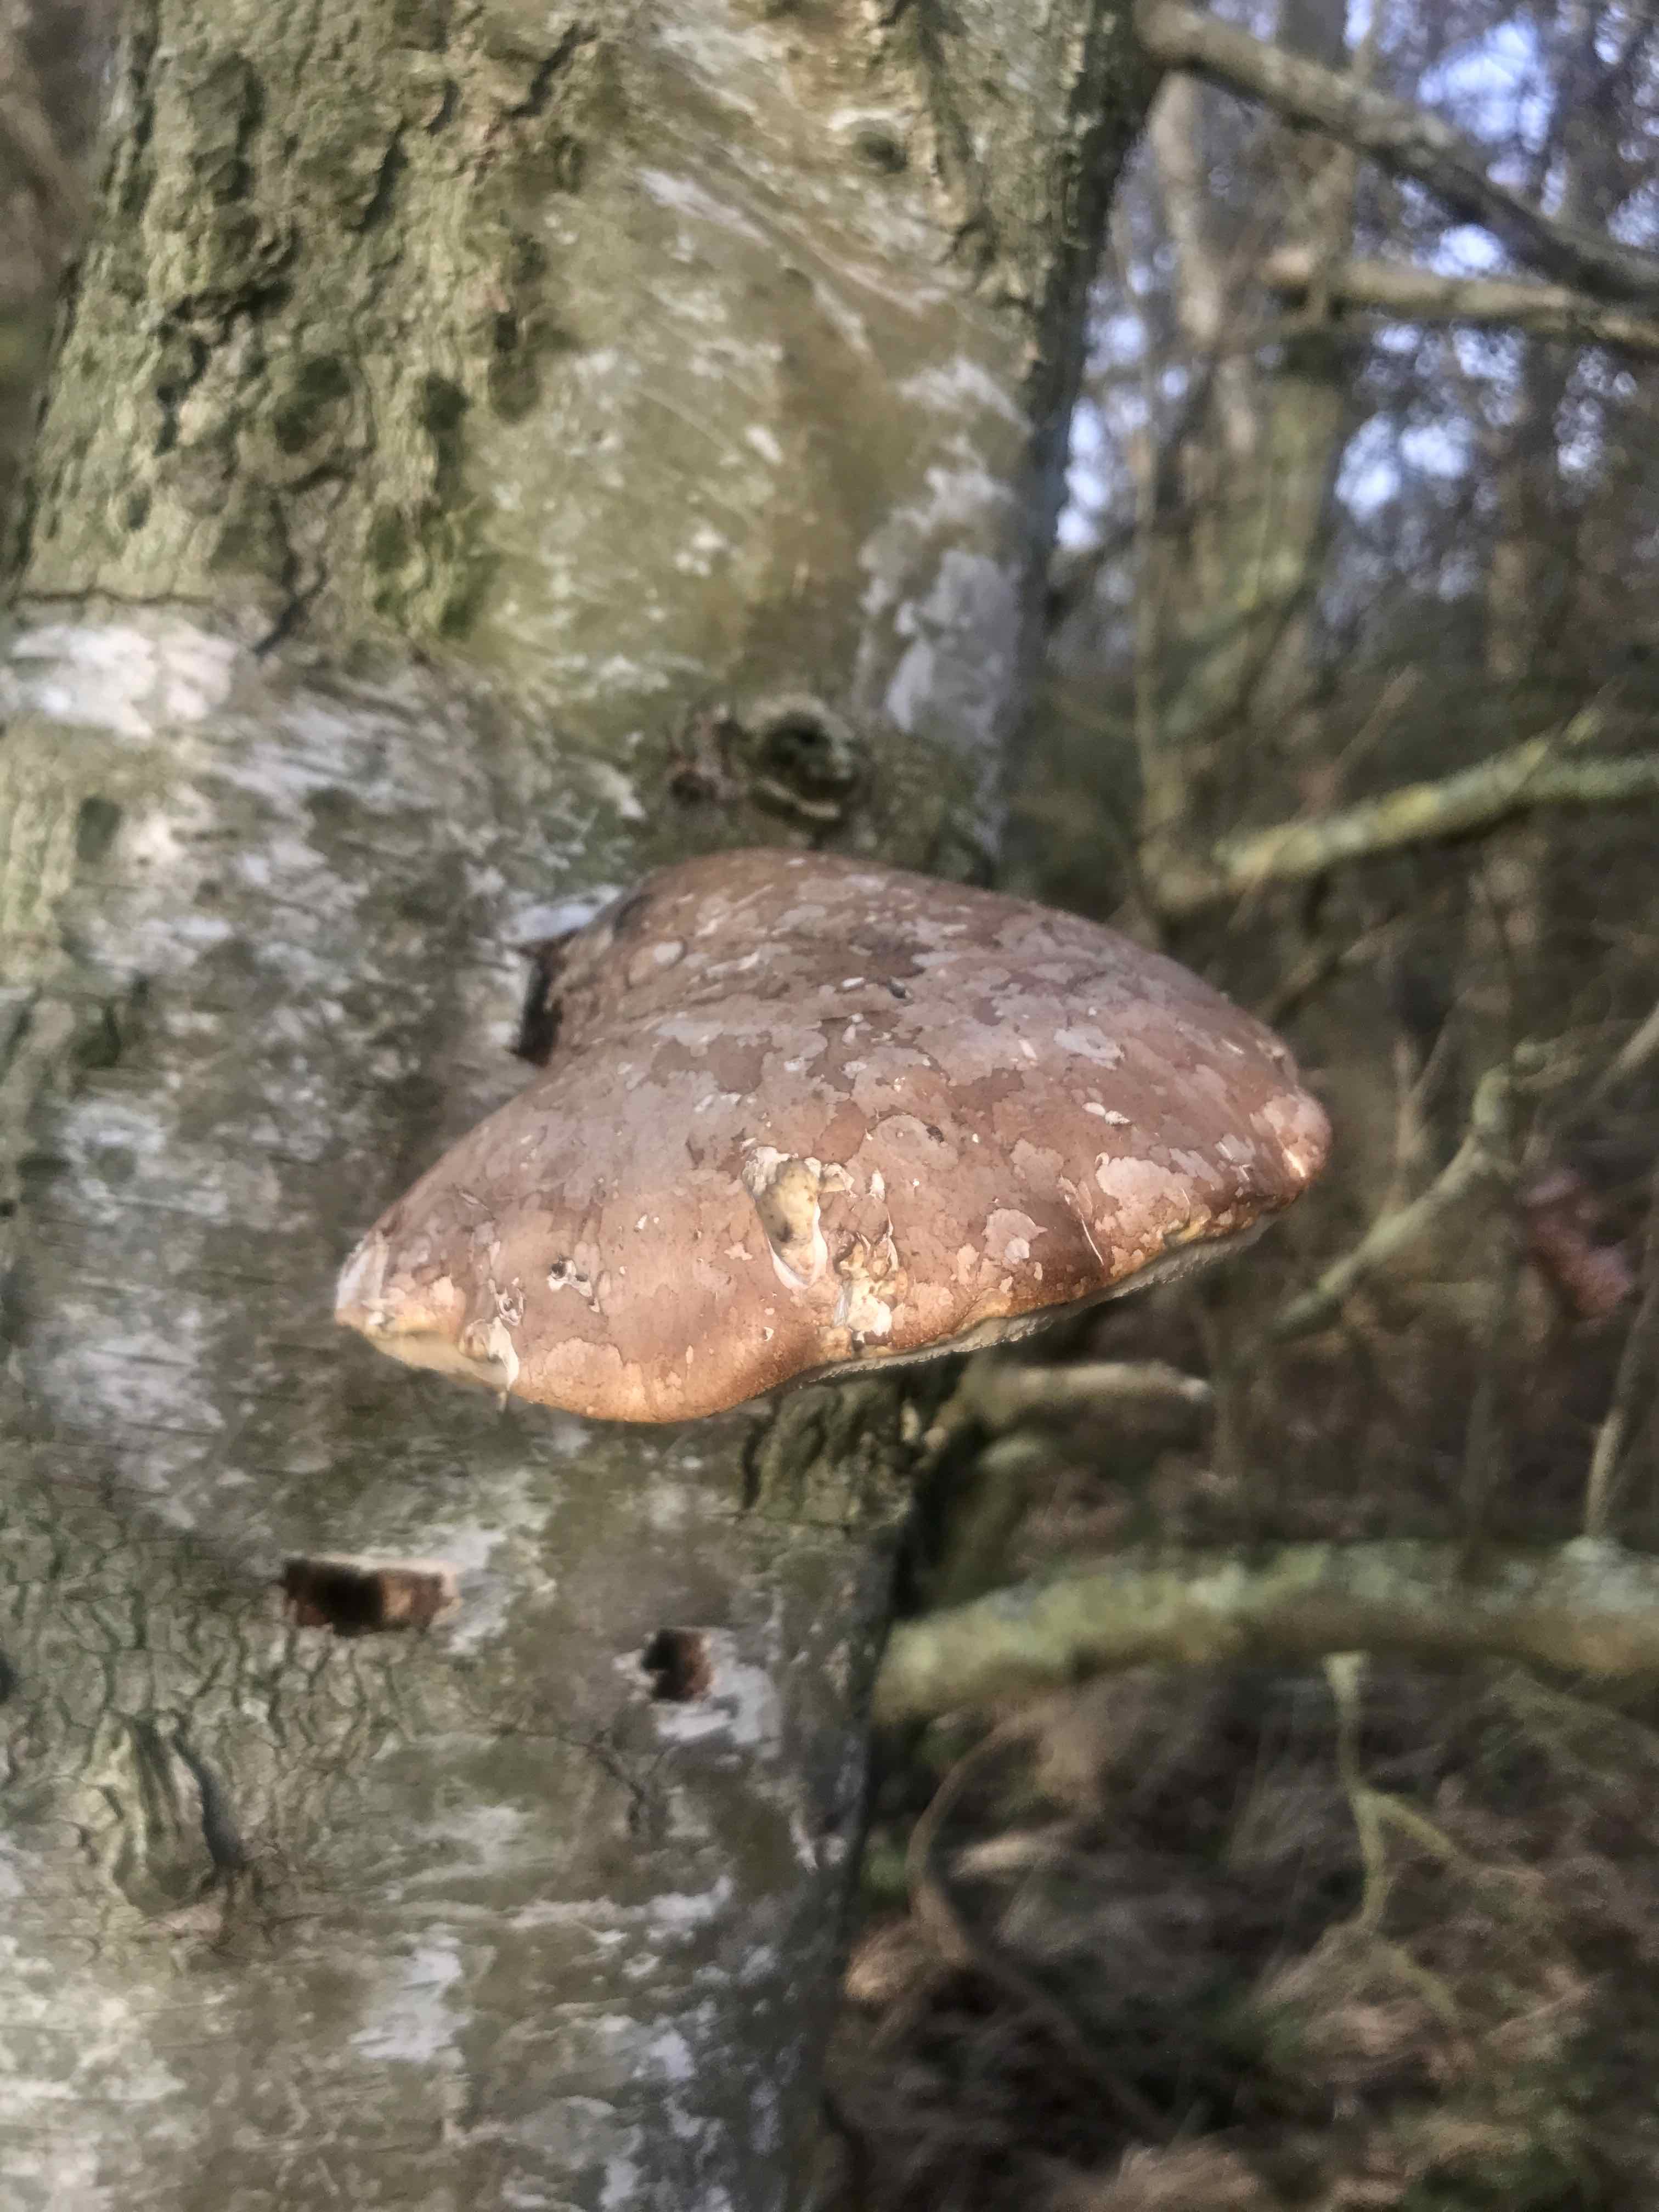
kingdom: Fungi
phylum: Basidiomycota
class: Agaricomycetes
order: Polyporales
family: Fomitopsidaceae
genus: Fomitopsis
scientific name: Fomitopsis betulina
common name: birkeporesvamp
